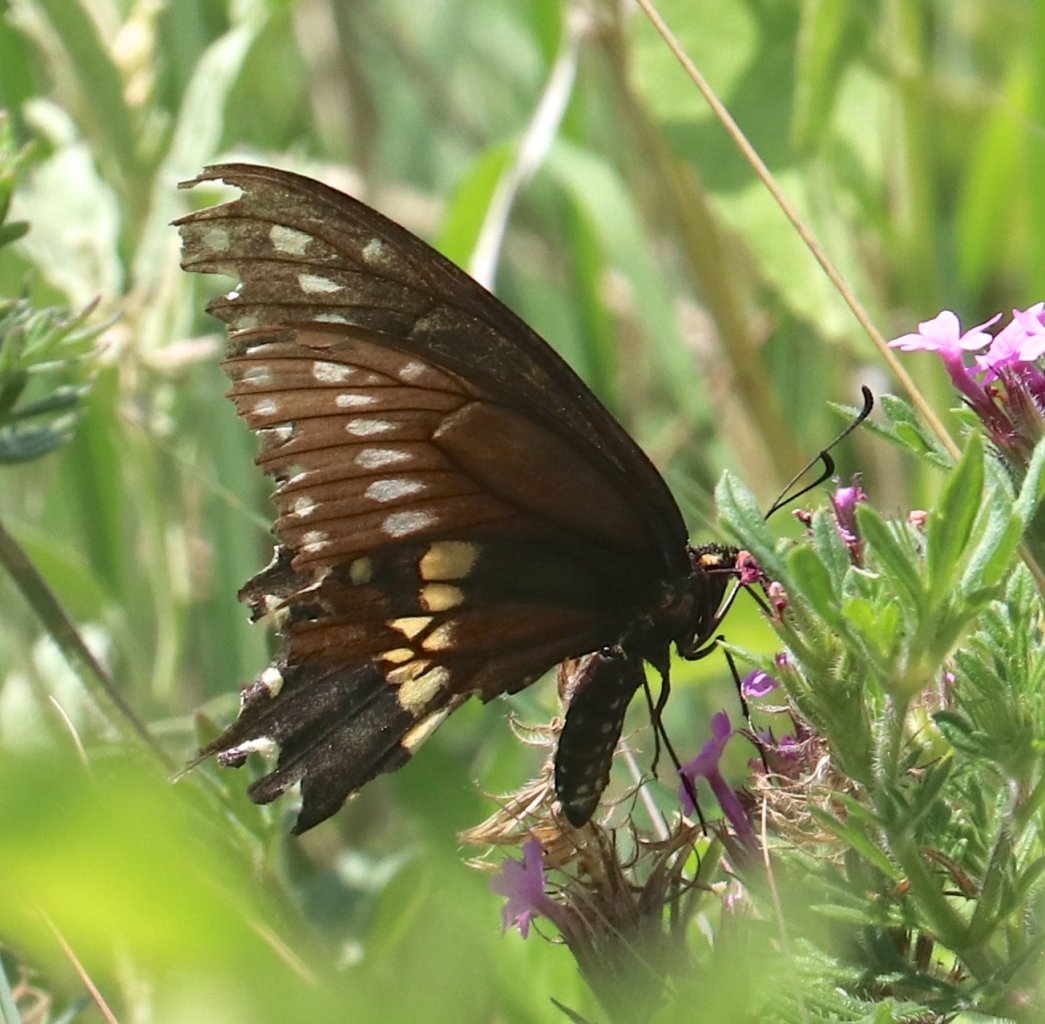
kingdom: Animalia
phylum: Arthropoda
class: Insecta
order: Lepidoptera
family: Papilionidae
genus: Papilio
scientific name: Papilio polyxenes
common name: Black Swallowtail
